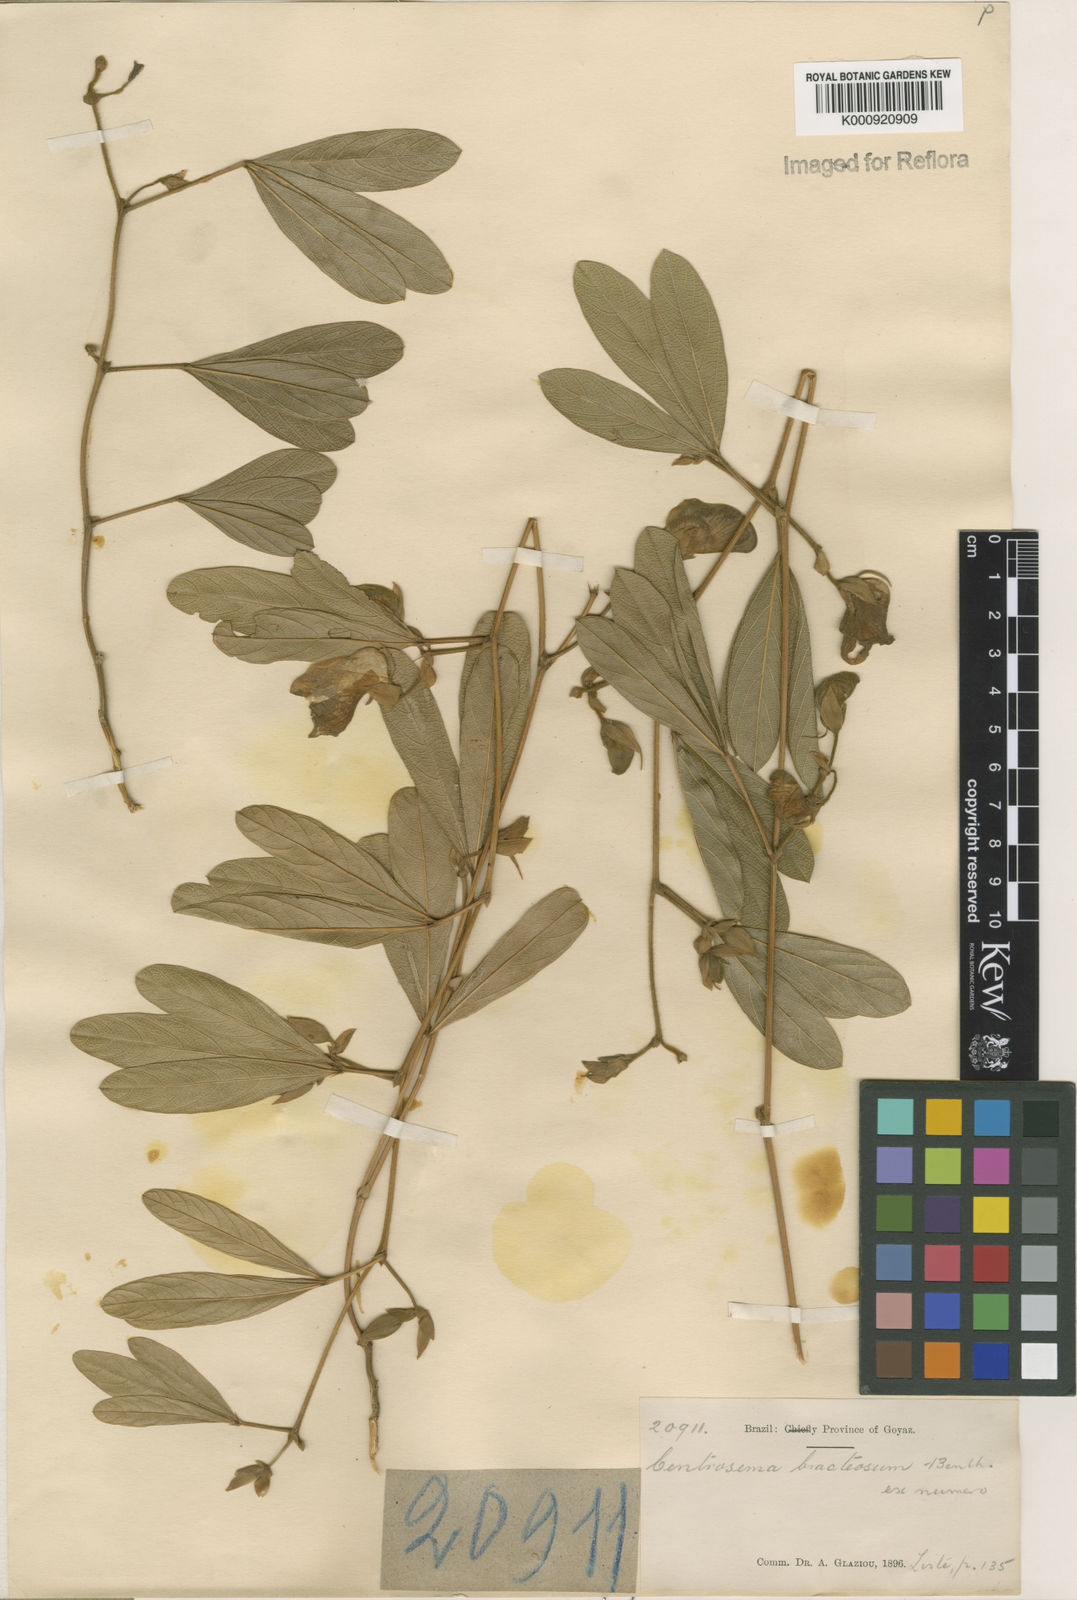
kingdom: Plantae
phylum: Tracheophyta
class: Magnoliopsida
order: Fabales
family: Fabaceae
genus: Centrosema
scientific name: Centrosema bracteosum
